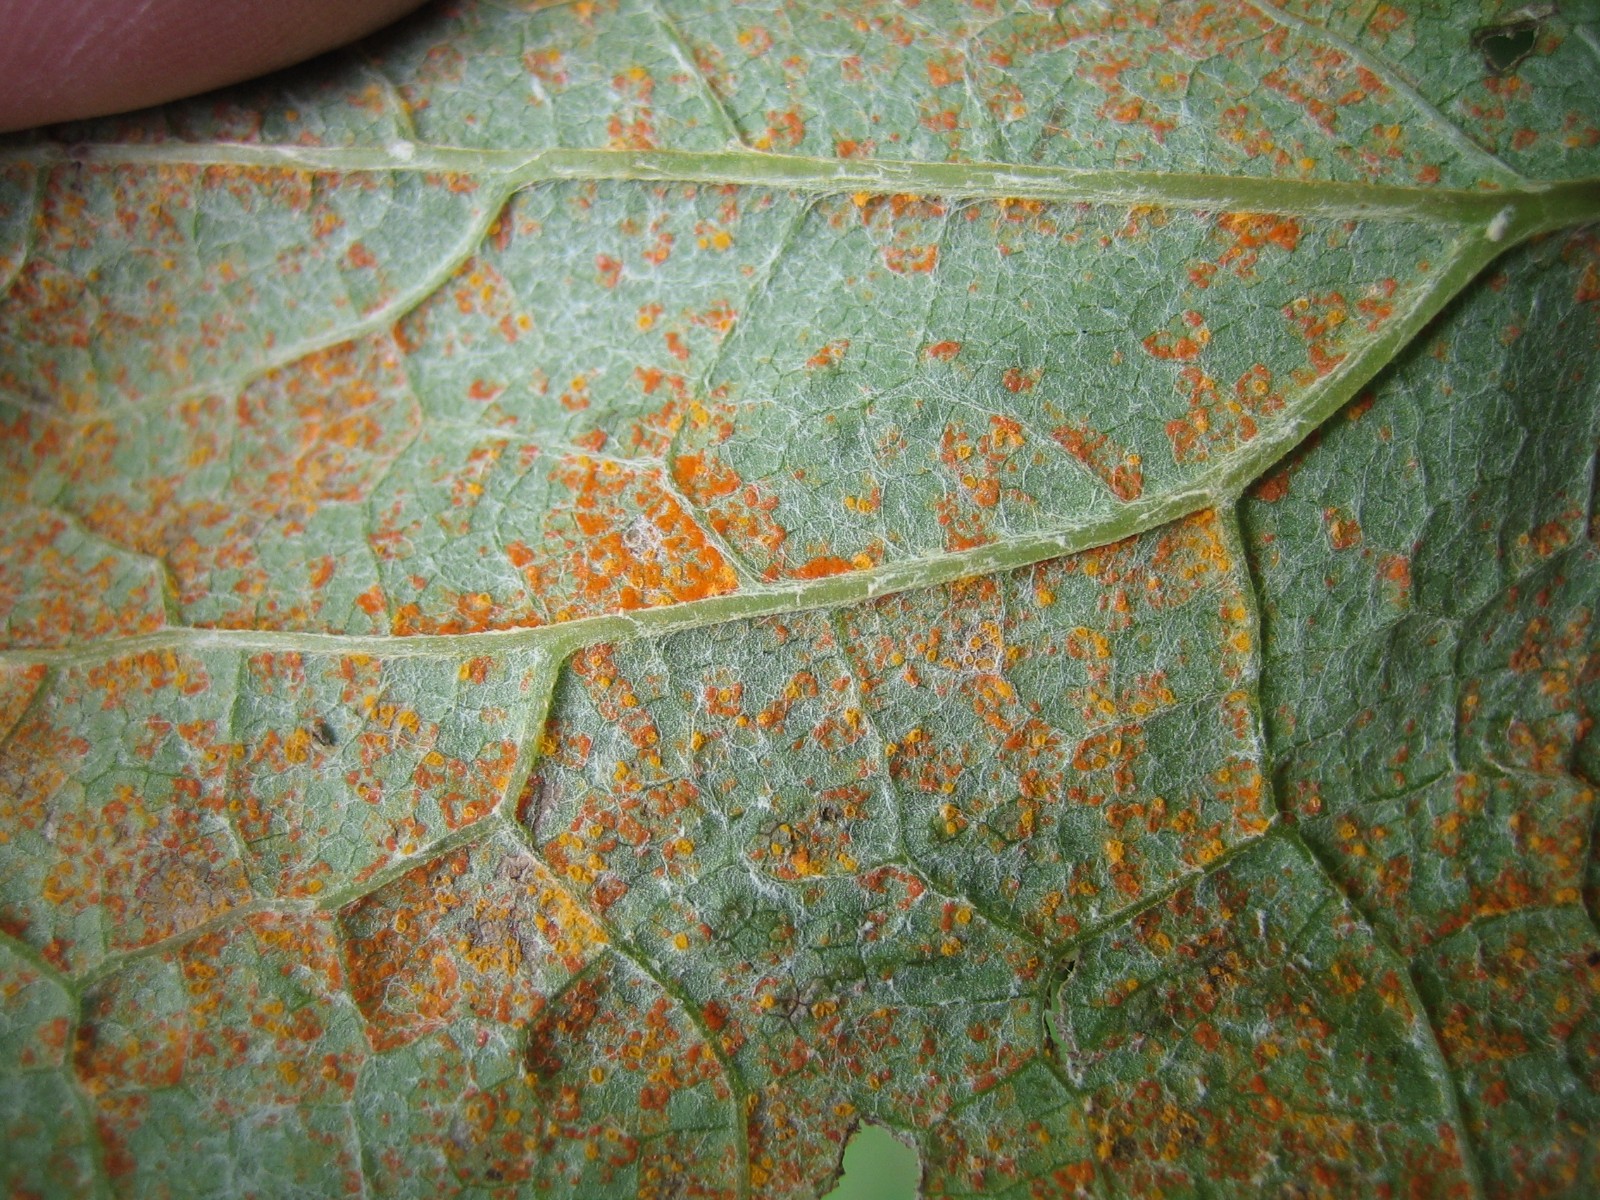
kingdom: Fungi
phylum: Basidiomycota
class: Pucciniomycetes
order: Pucciniales
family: Coleosporiaceae
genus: Coleosporium
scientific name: Coleosporium tussilaginis
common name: almindelig fyrrenålerust
